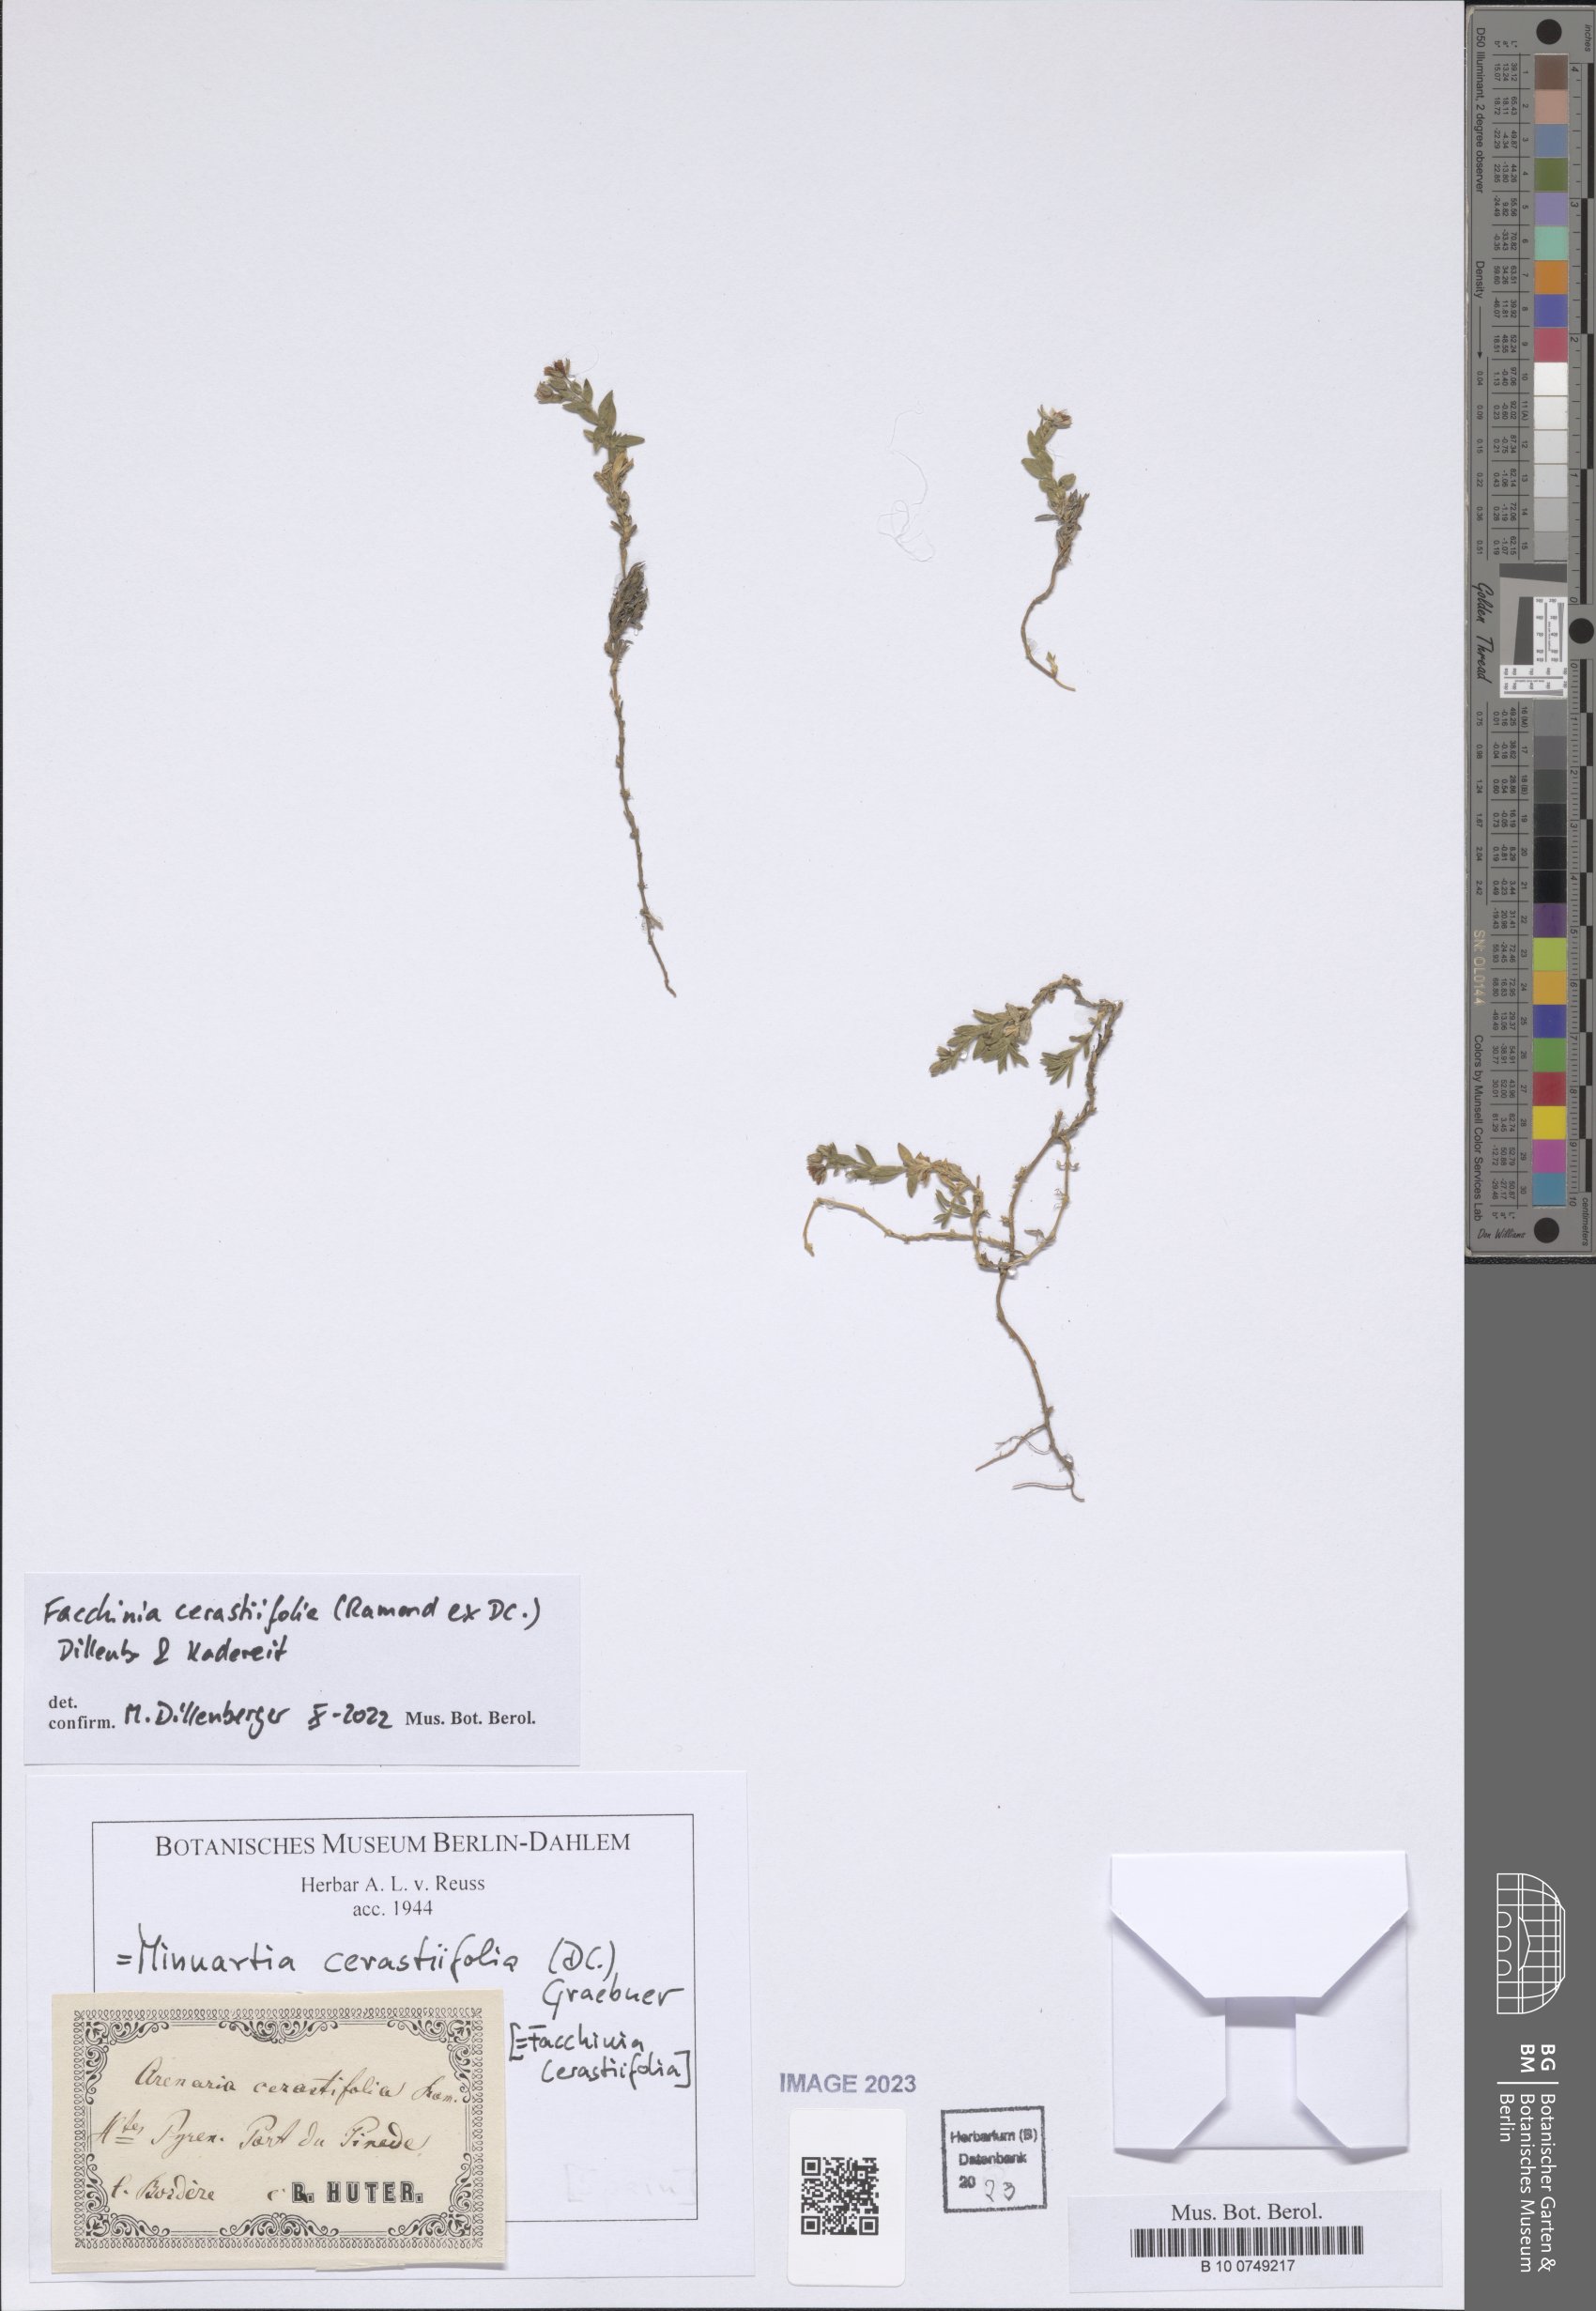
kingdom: Plantae
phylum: Tracheophyta
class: Magnoliopsida
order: Caryophyllales
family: Caryophyllaceae
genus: Facchinia
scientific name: Facchinia cerastiifolia
